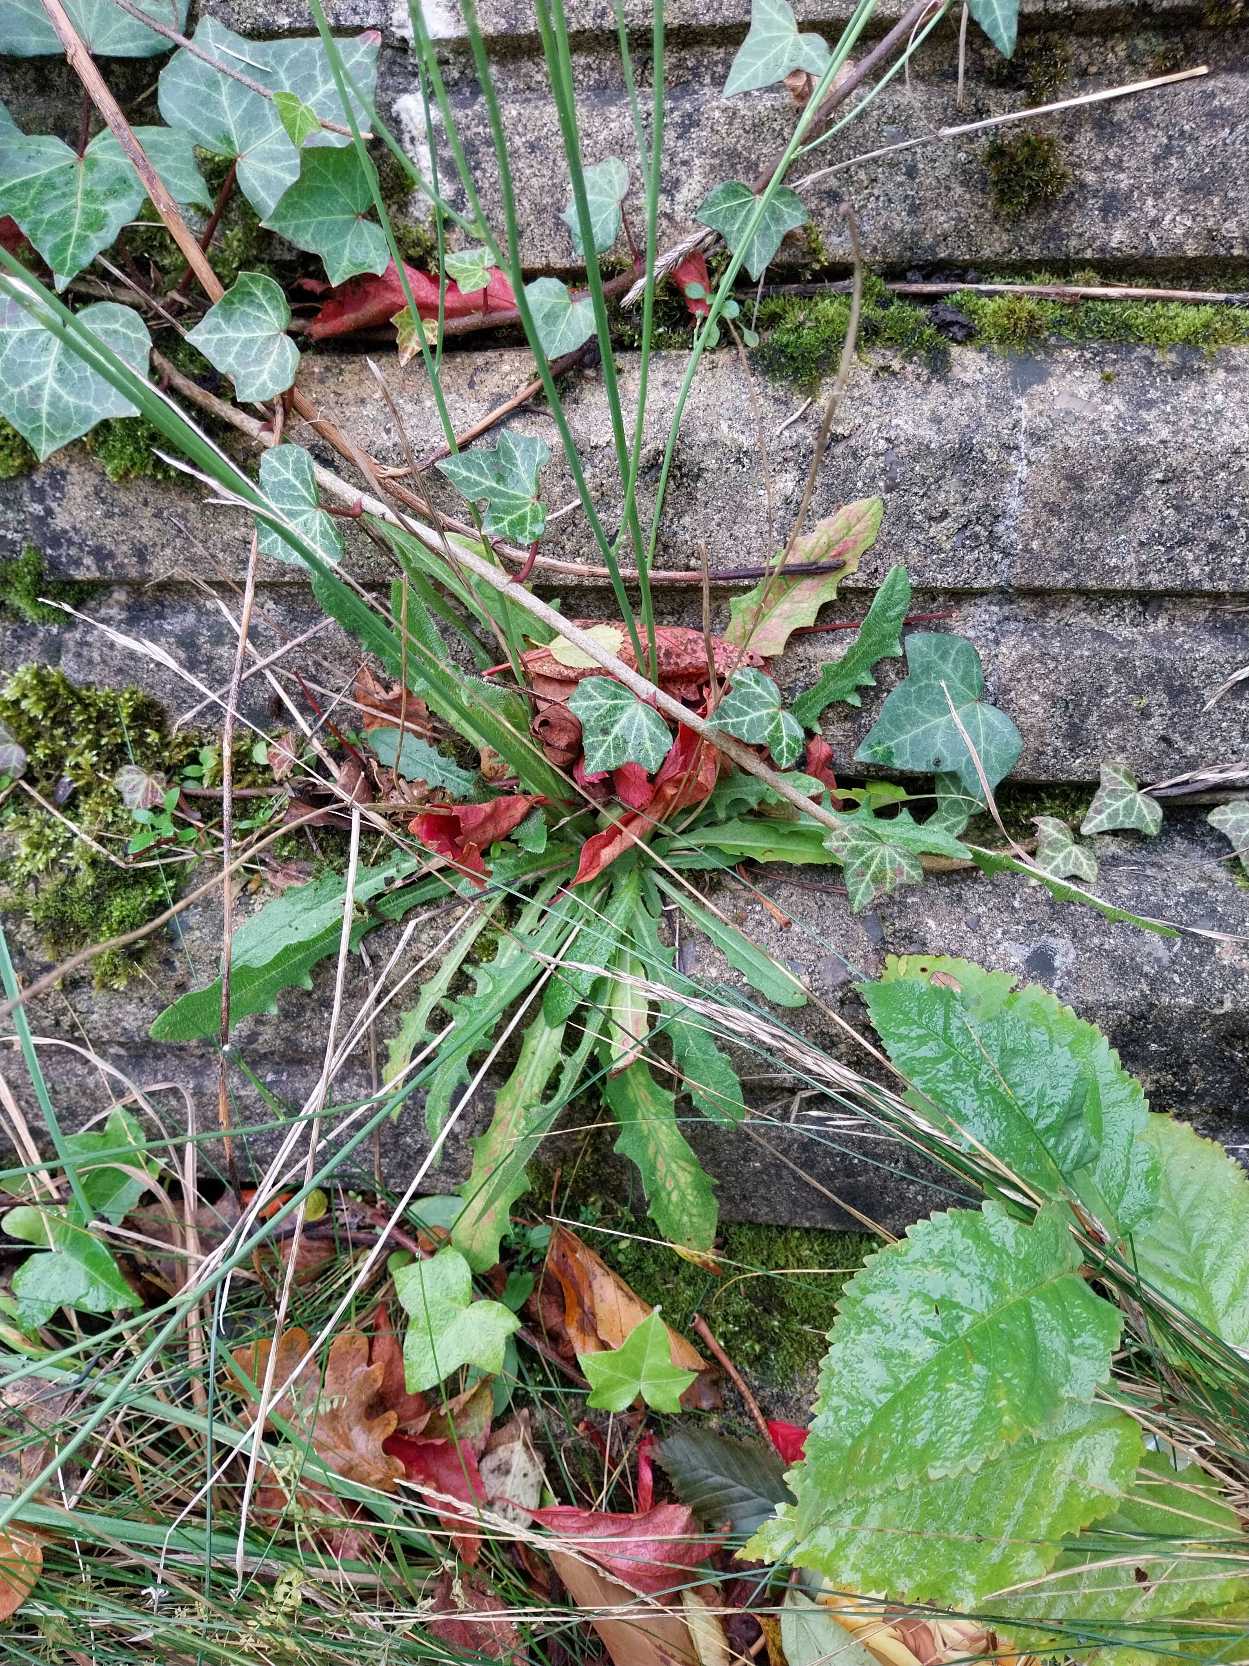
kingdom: Plantae
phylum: Tracheophyta
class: Magnoliopsida
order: Asterales
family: Asteraceae
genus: Scorzoneroides
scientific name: Scorzoneroides autumnalis
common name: Høst-borst
